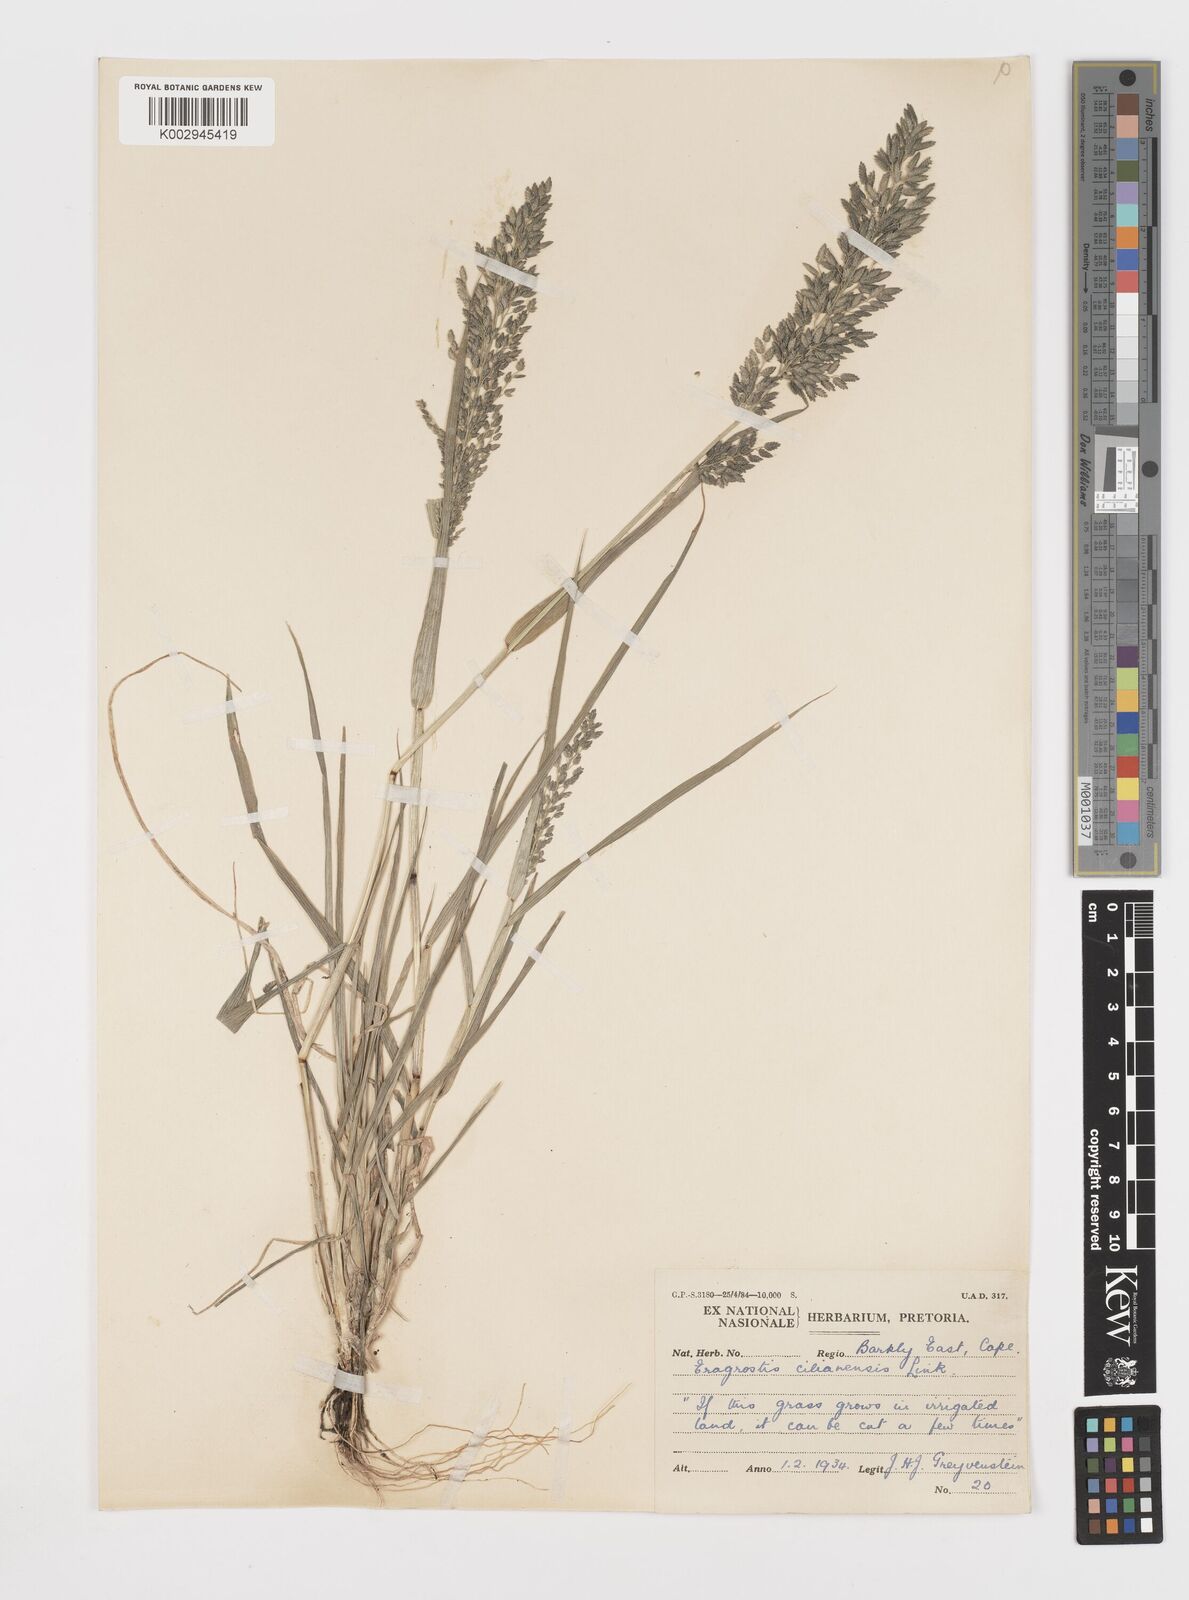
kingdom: Plantae
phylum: Tracheophyta
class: Liliopsida
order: Poales
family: Poaceae
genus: Eragrostis
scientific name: Eragrostis cilianensis
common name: Stinkgrass
